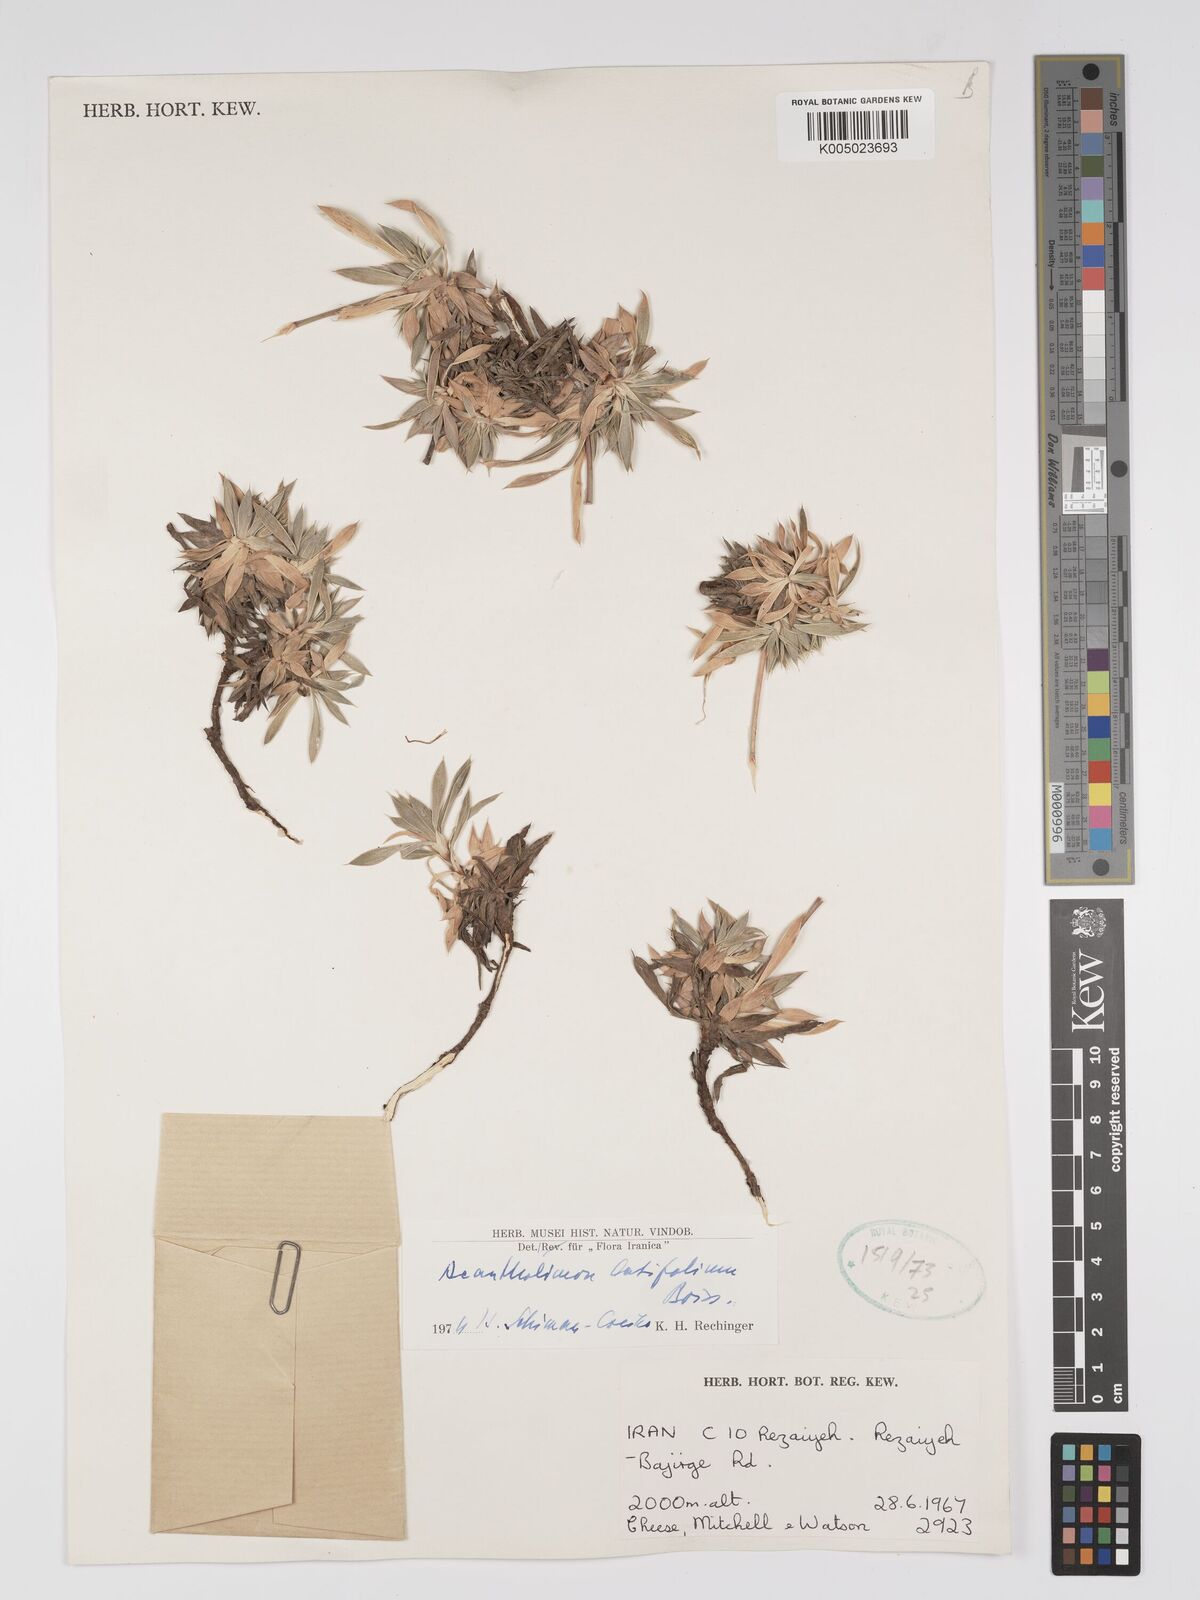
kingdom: Plantae
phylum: Tracheophyta
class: Magnoliopsida
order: Caryophyllales
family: Plumbaginaceae
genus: Acantholimon
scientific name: Acantholimon
